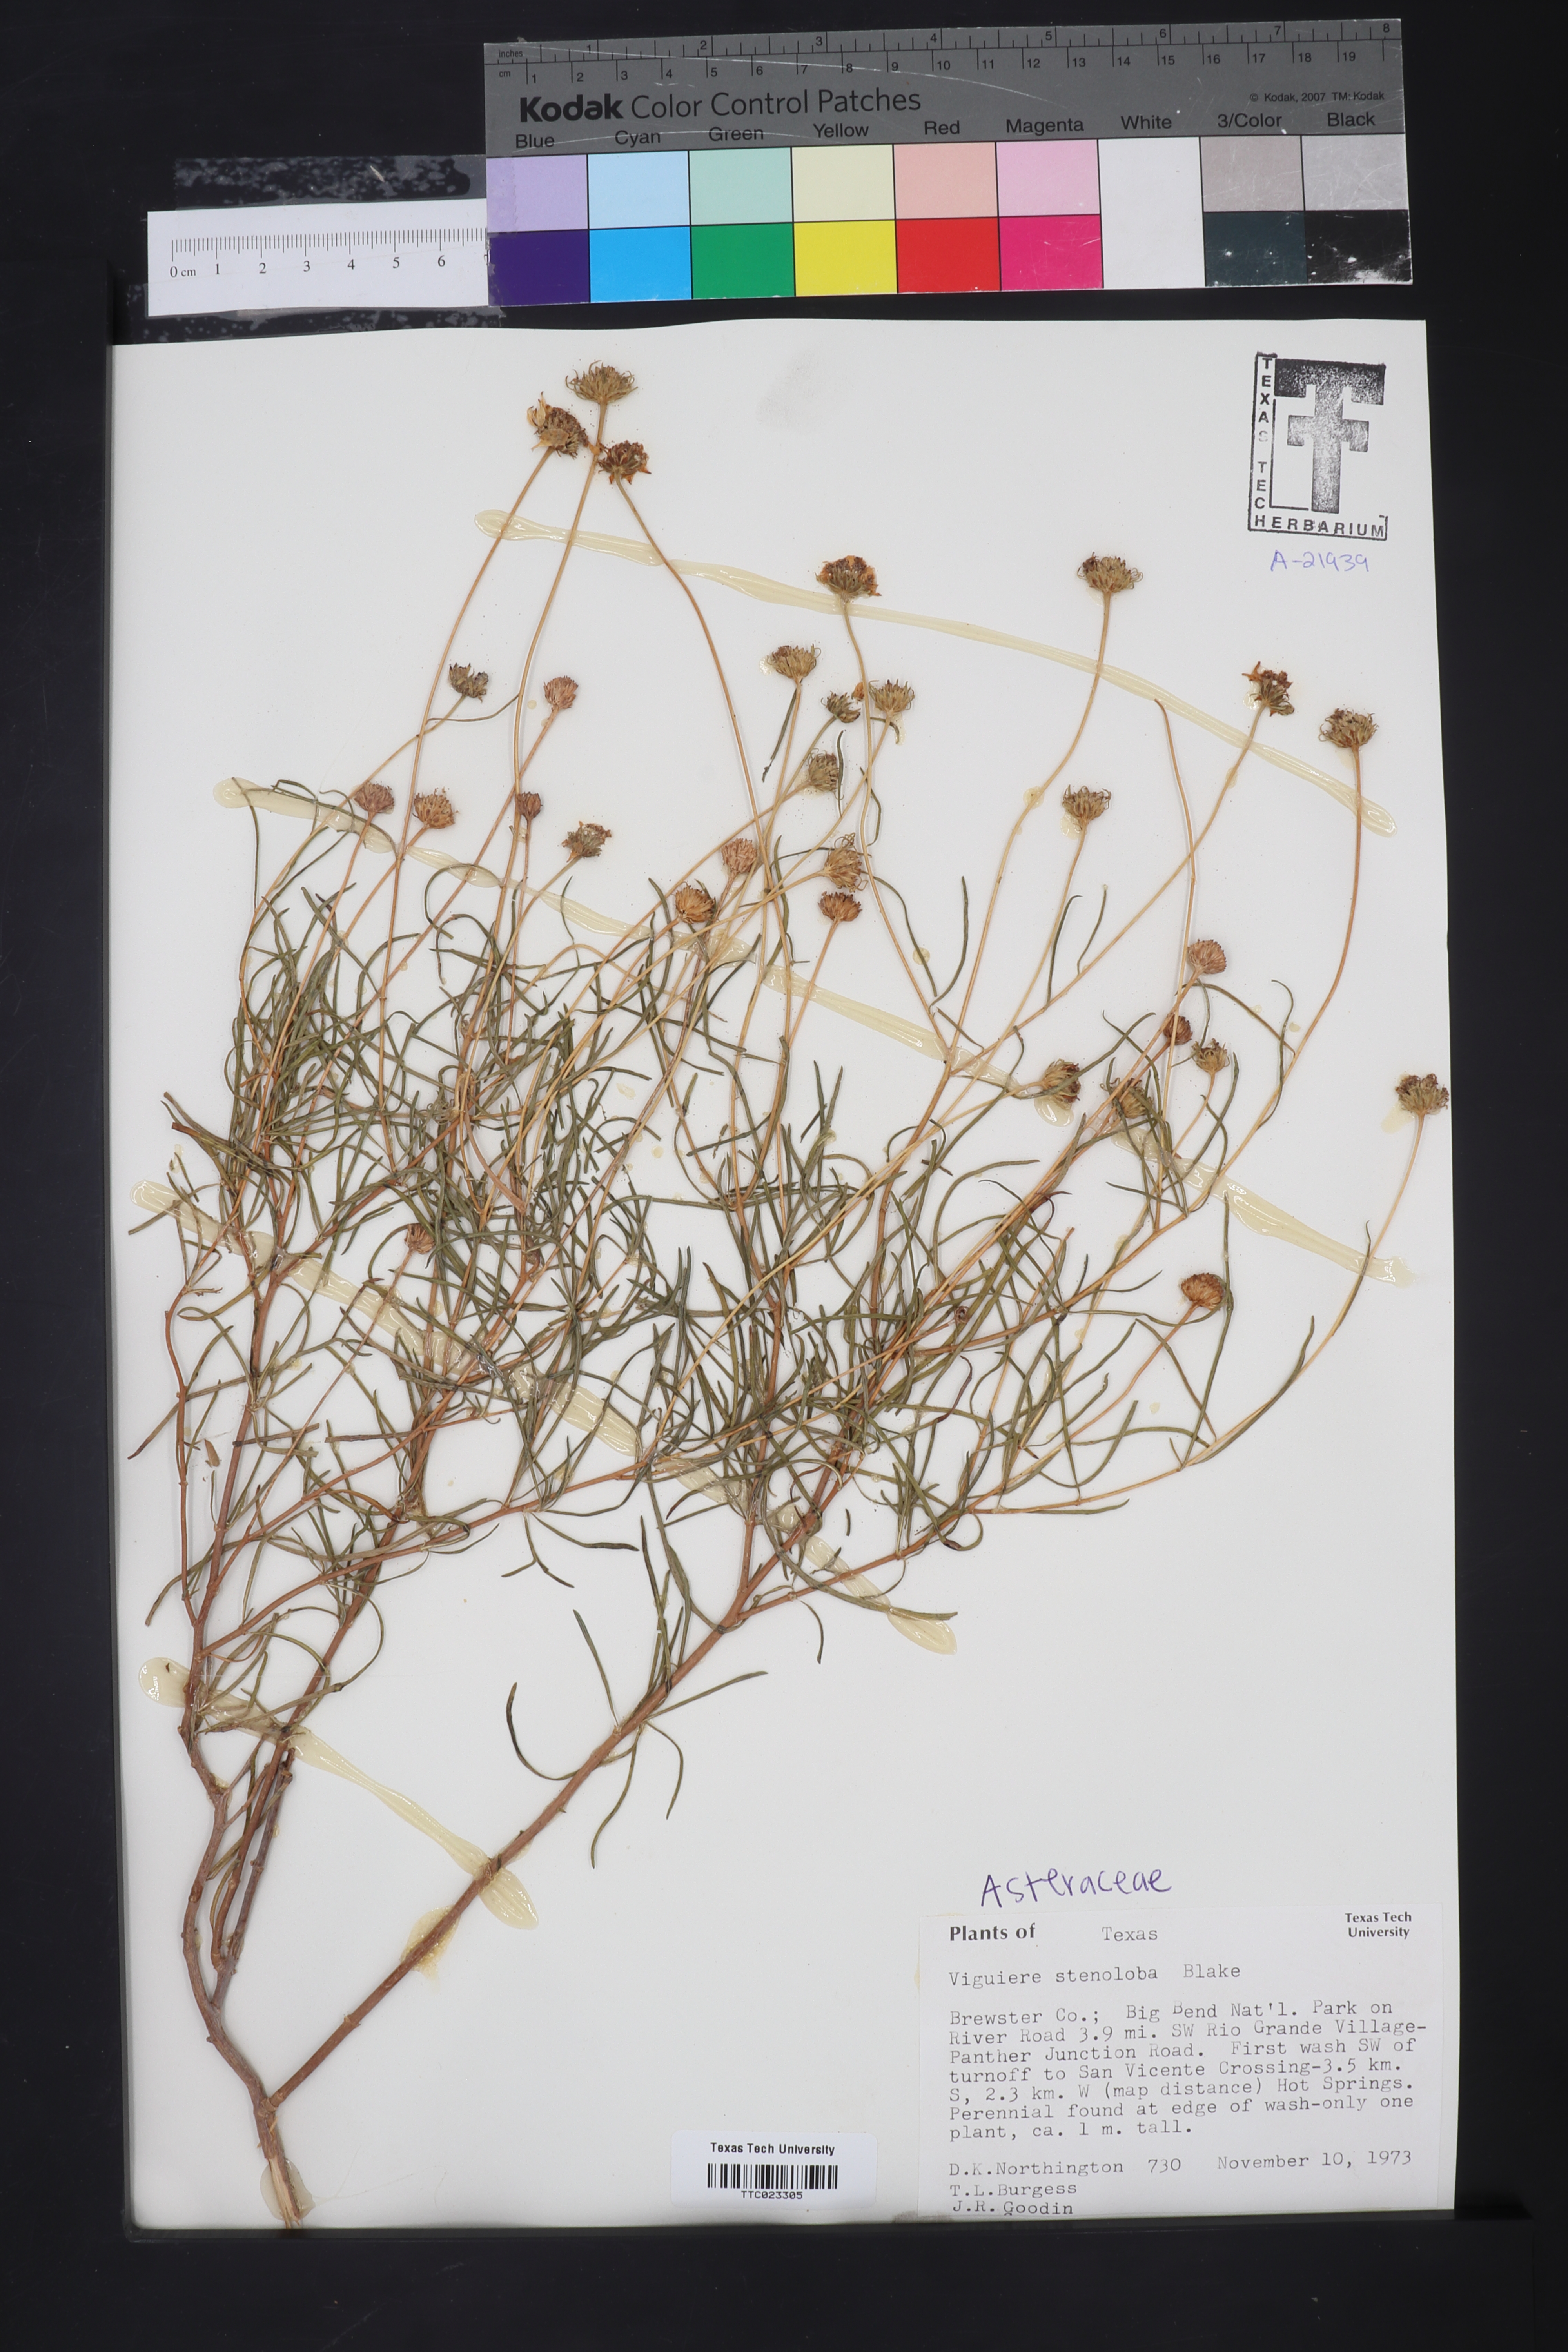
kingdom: Plantae
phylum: Tracheophyta
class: Magnoliopsida
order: Asterales
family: Asteraceae
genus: Sidneya
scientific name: Sidneya tenuifolia
